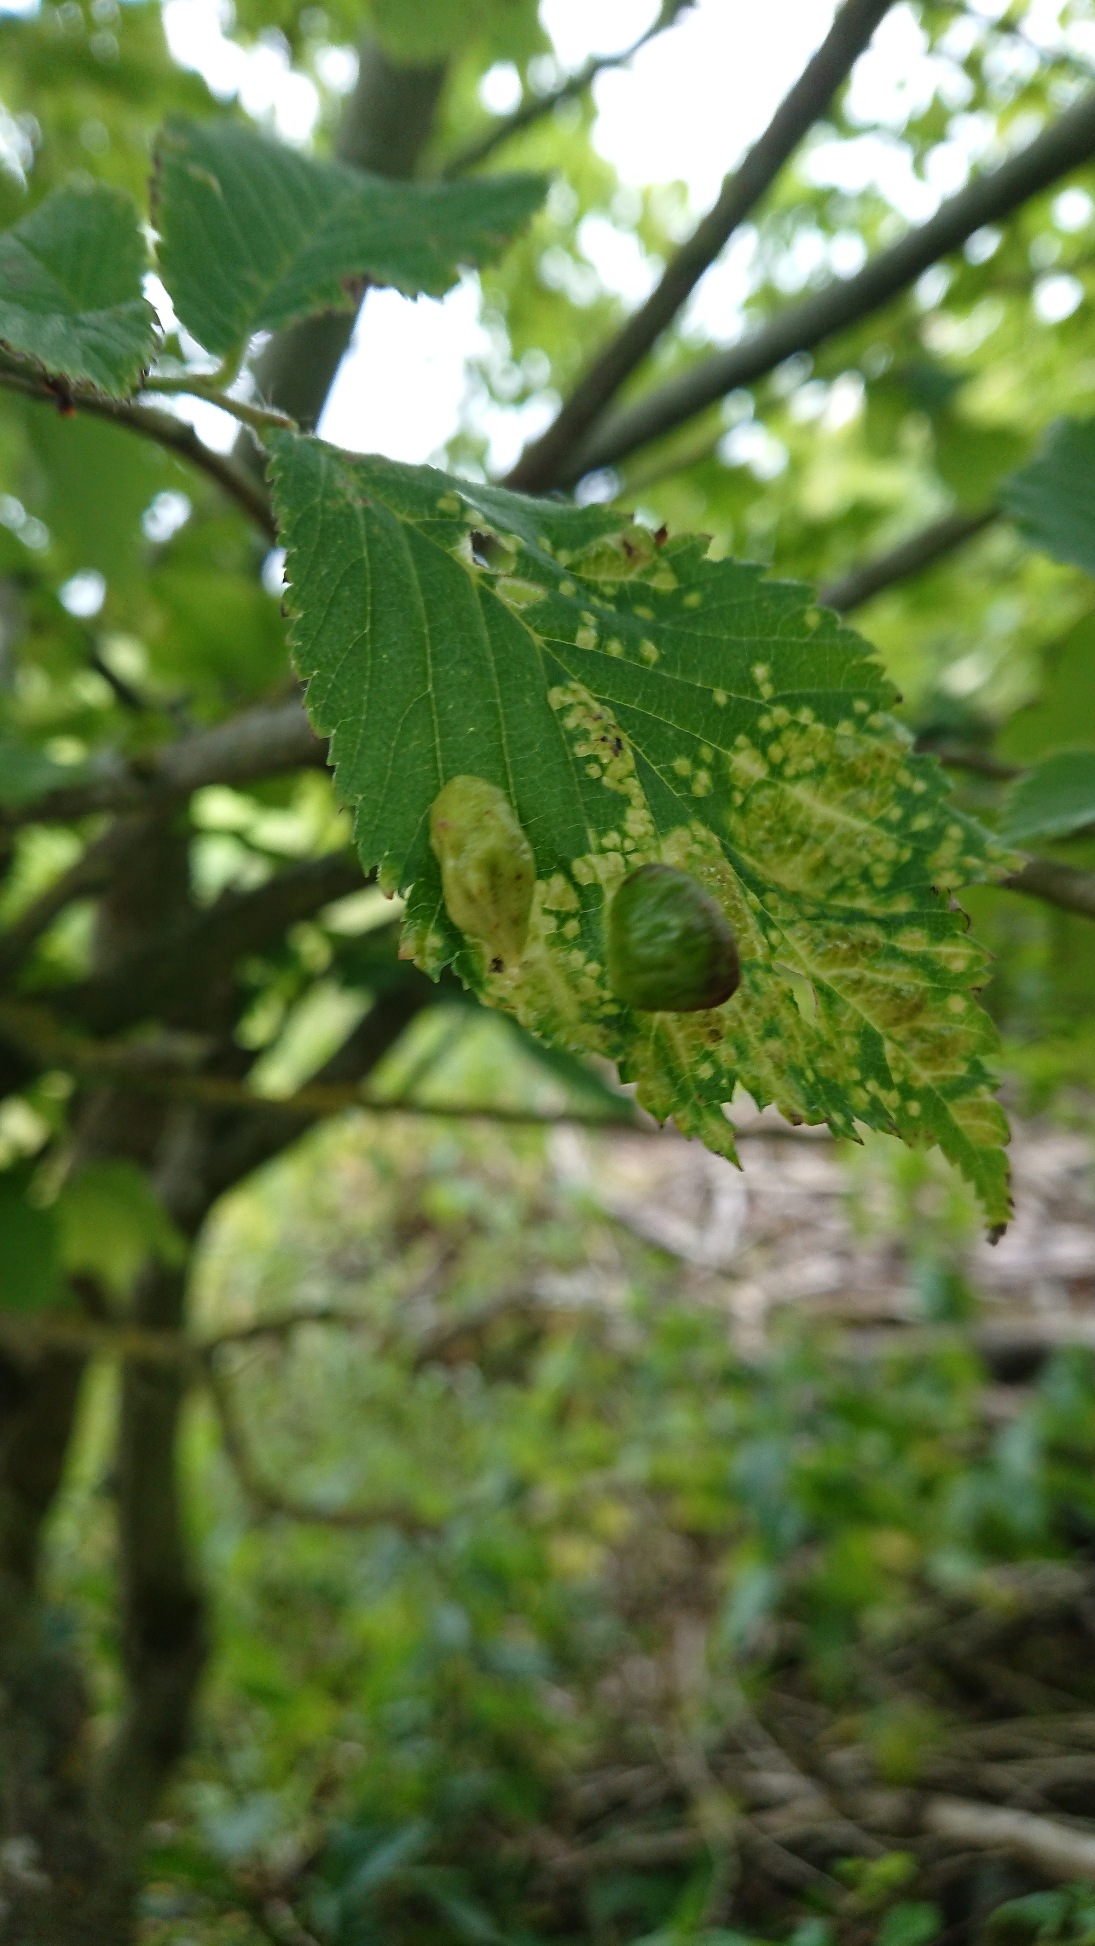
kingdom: Plantae
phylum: Tracheophyta
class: Magnoliopsida
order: Rosales
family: Ulmaceae
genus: Ulmus
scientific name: Ulmus glabra
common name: Skov-elm/storbladet elm
